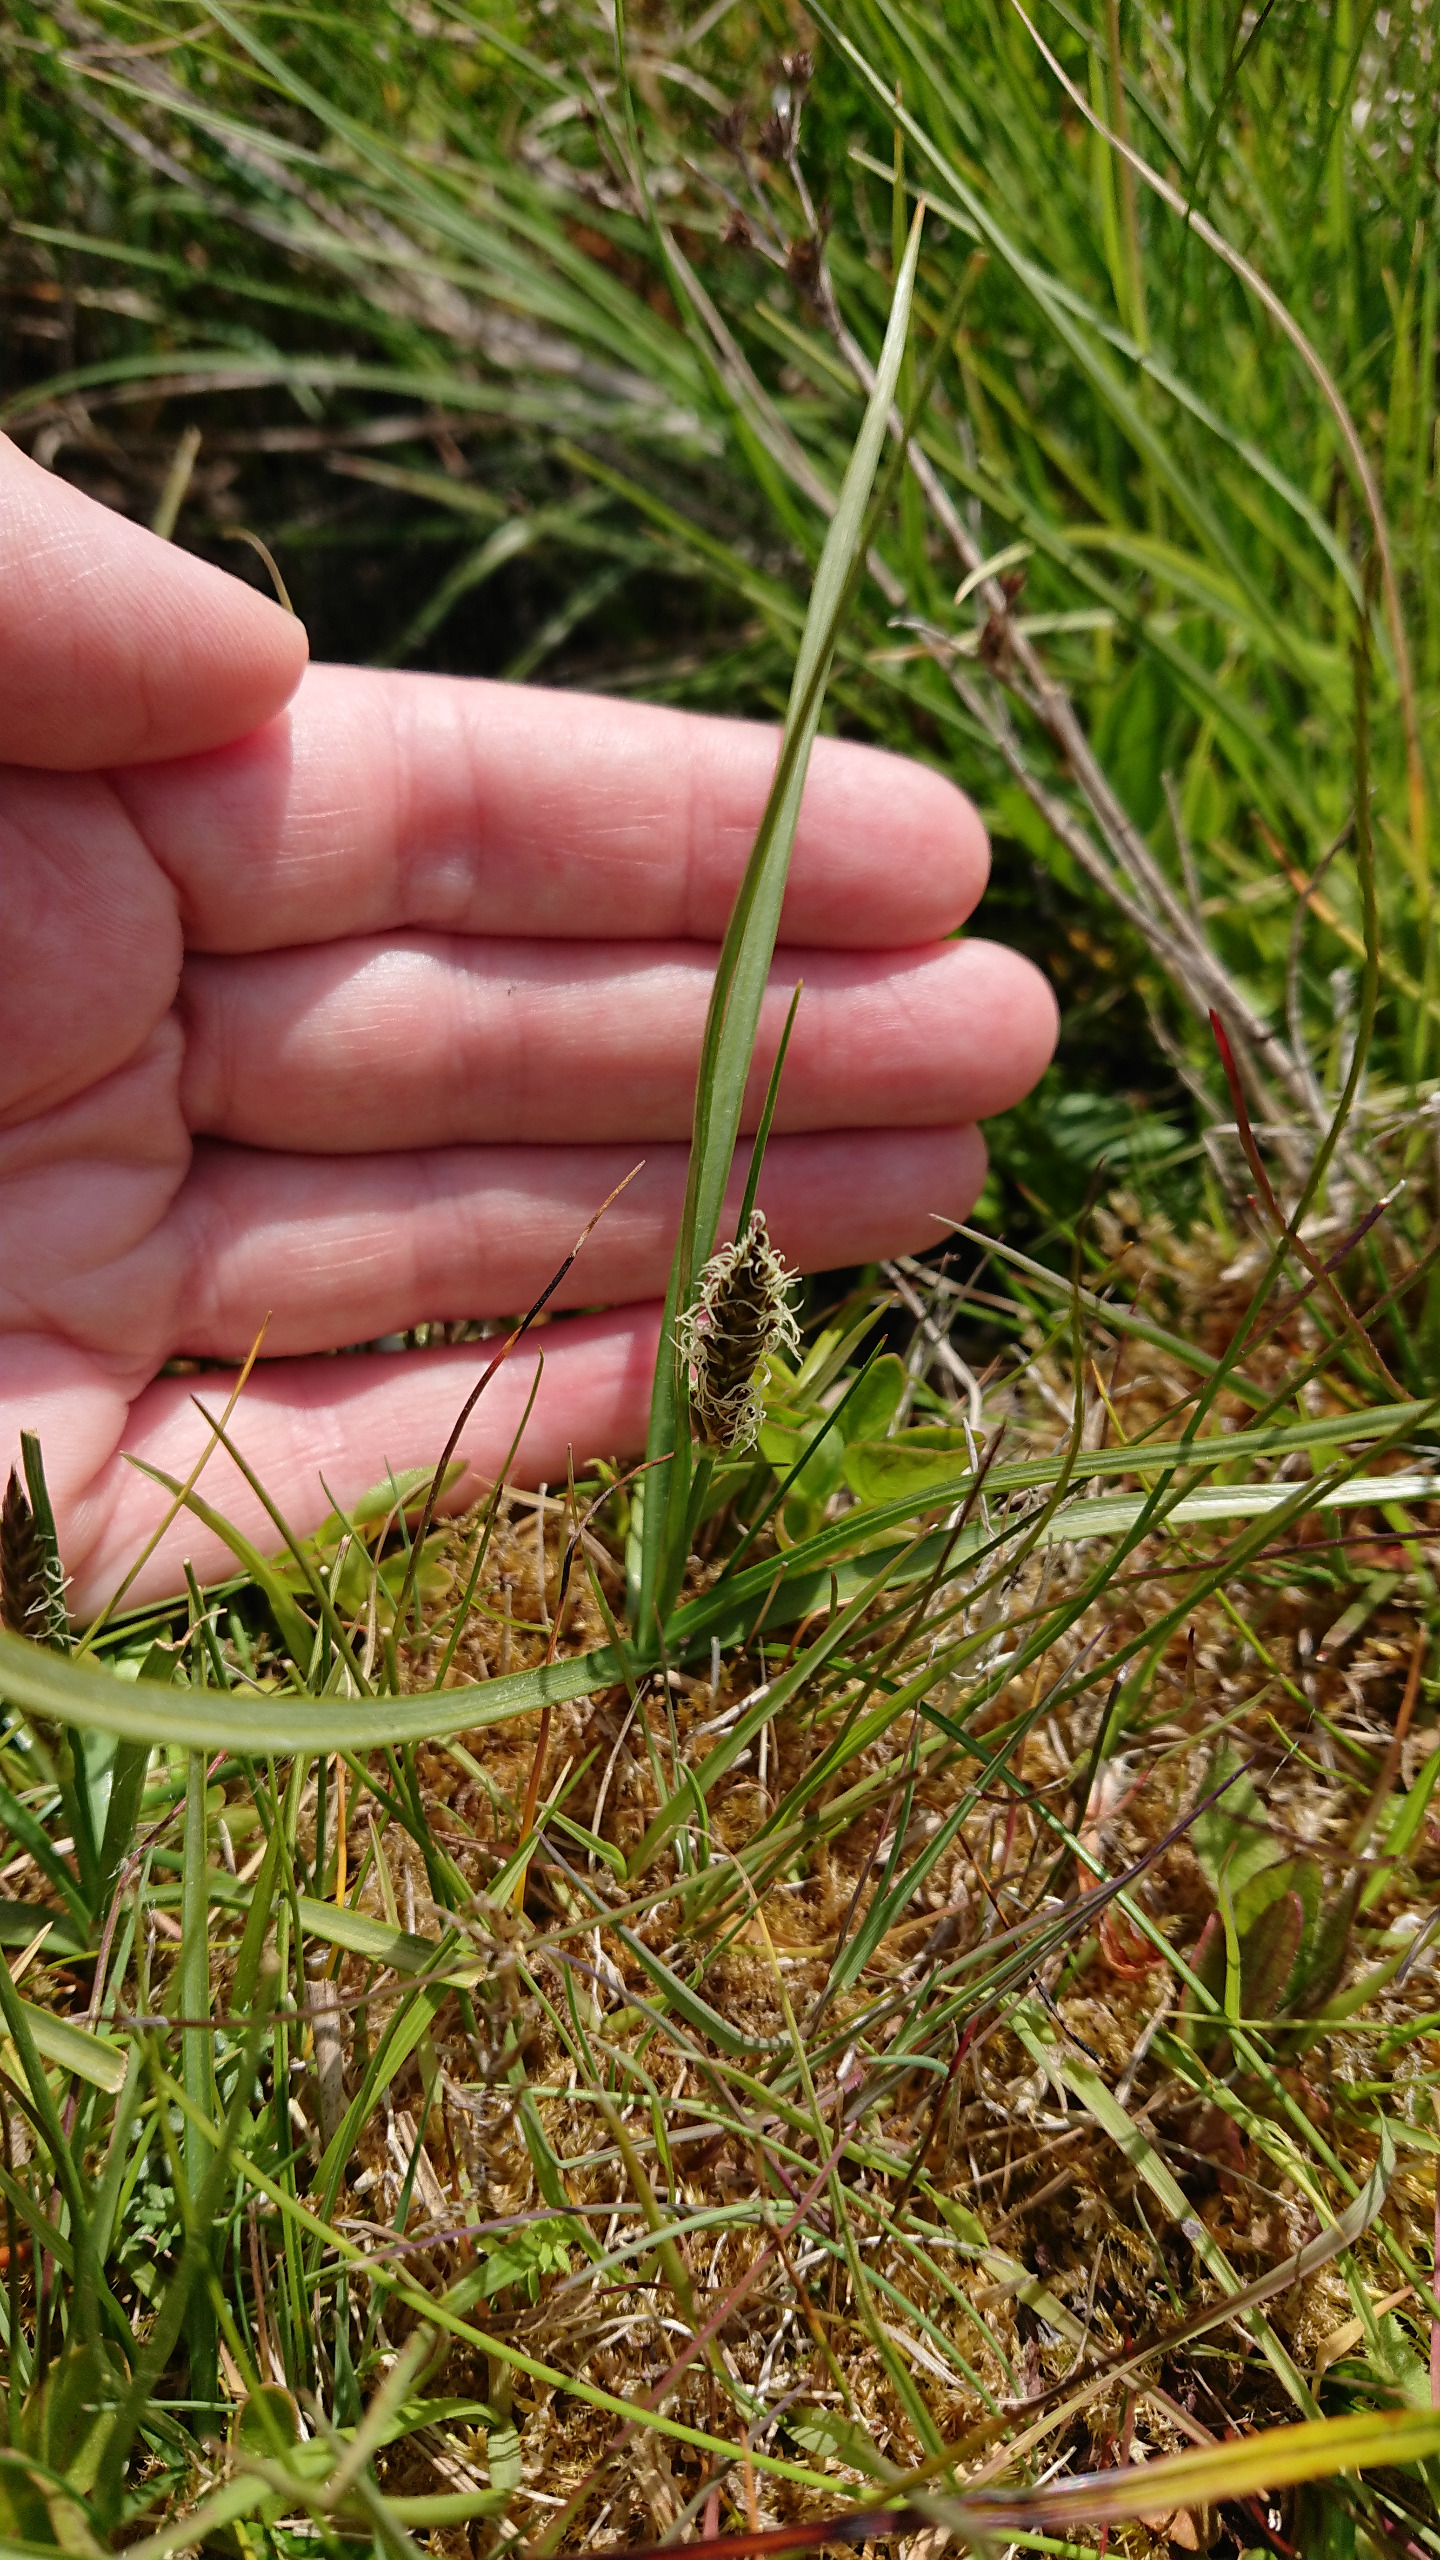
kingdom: Plantae
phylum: Tracheophyta
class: Liliopsida
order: Poales
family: Cyperaceae
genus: Blysmus
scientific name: Blysmus compressus
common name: Fladtrykt kogleaks
